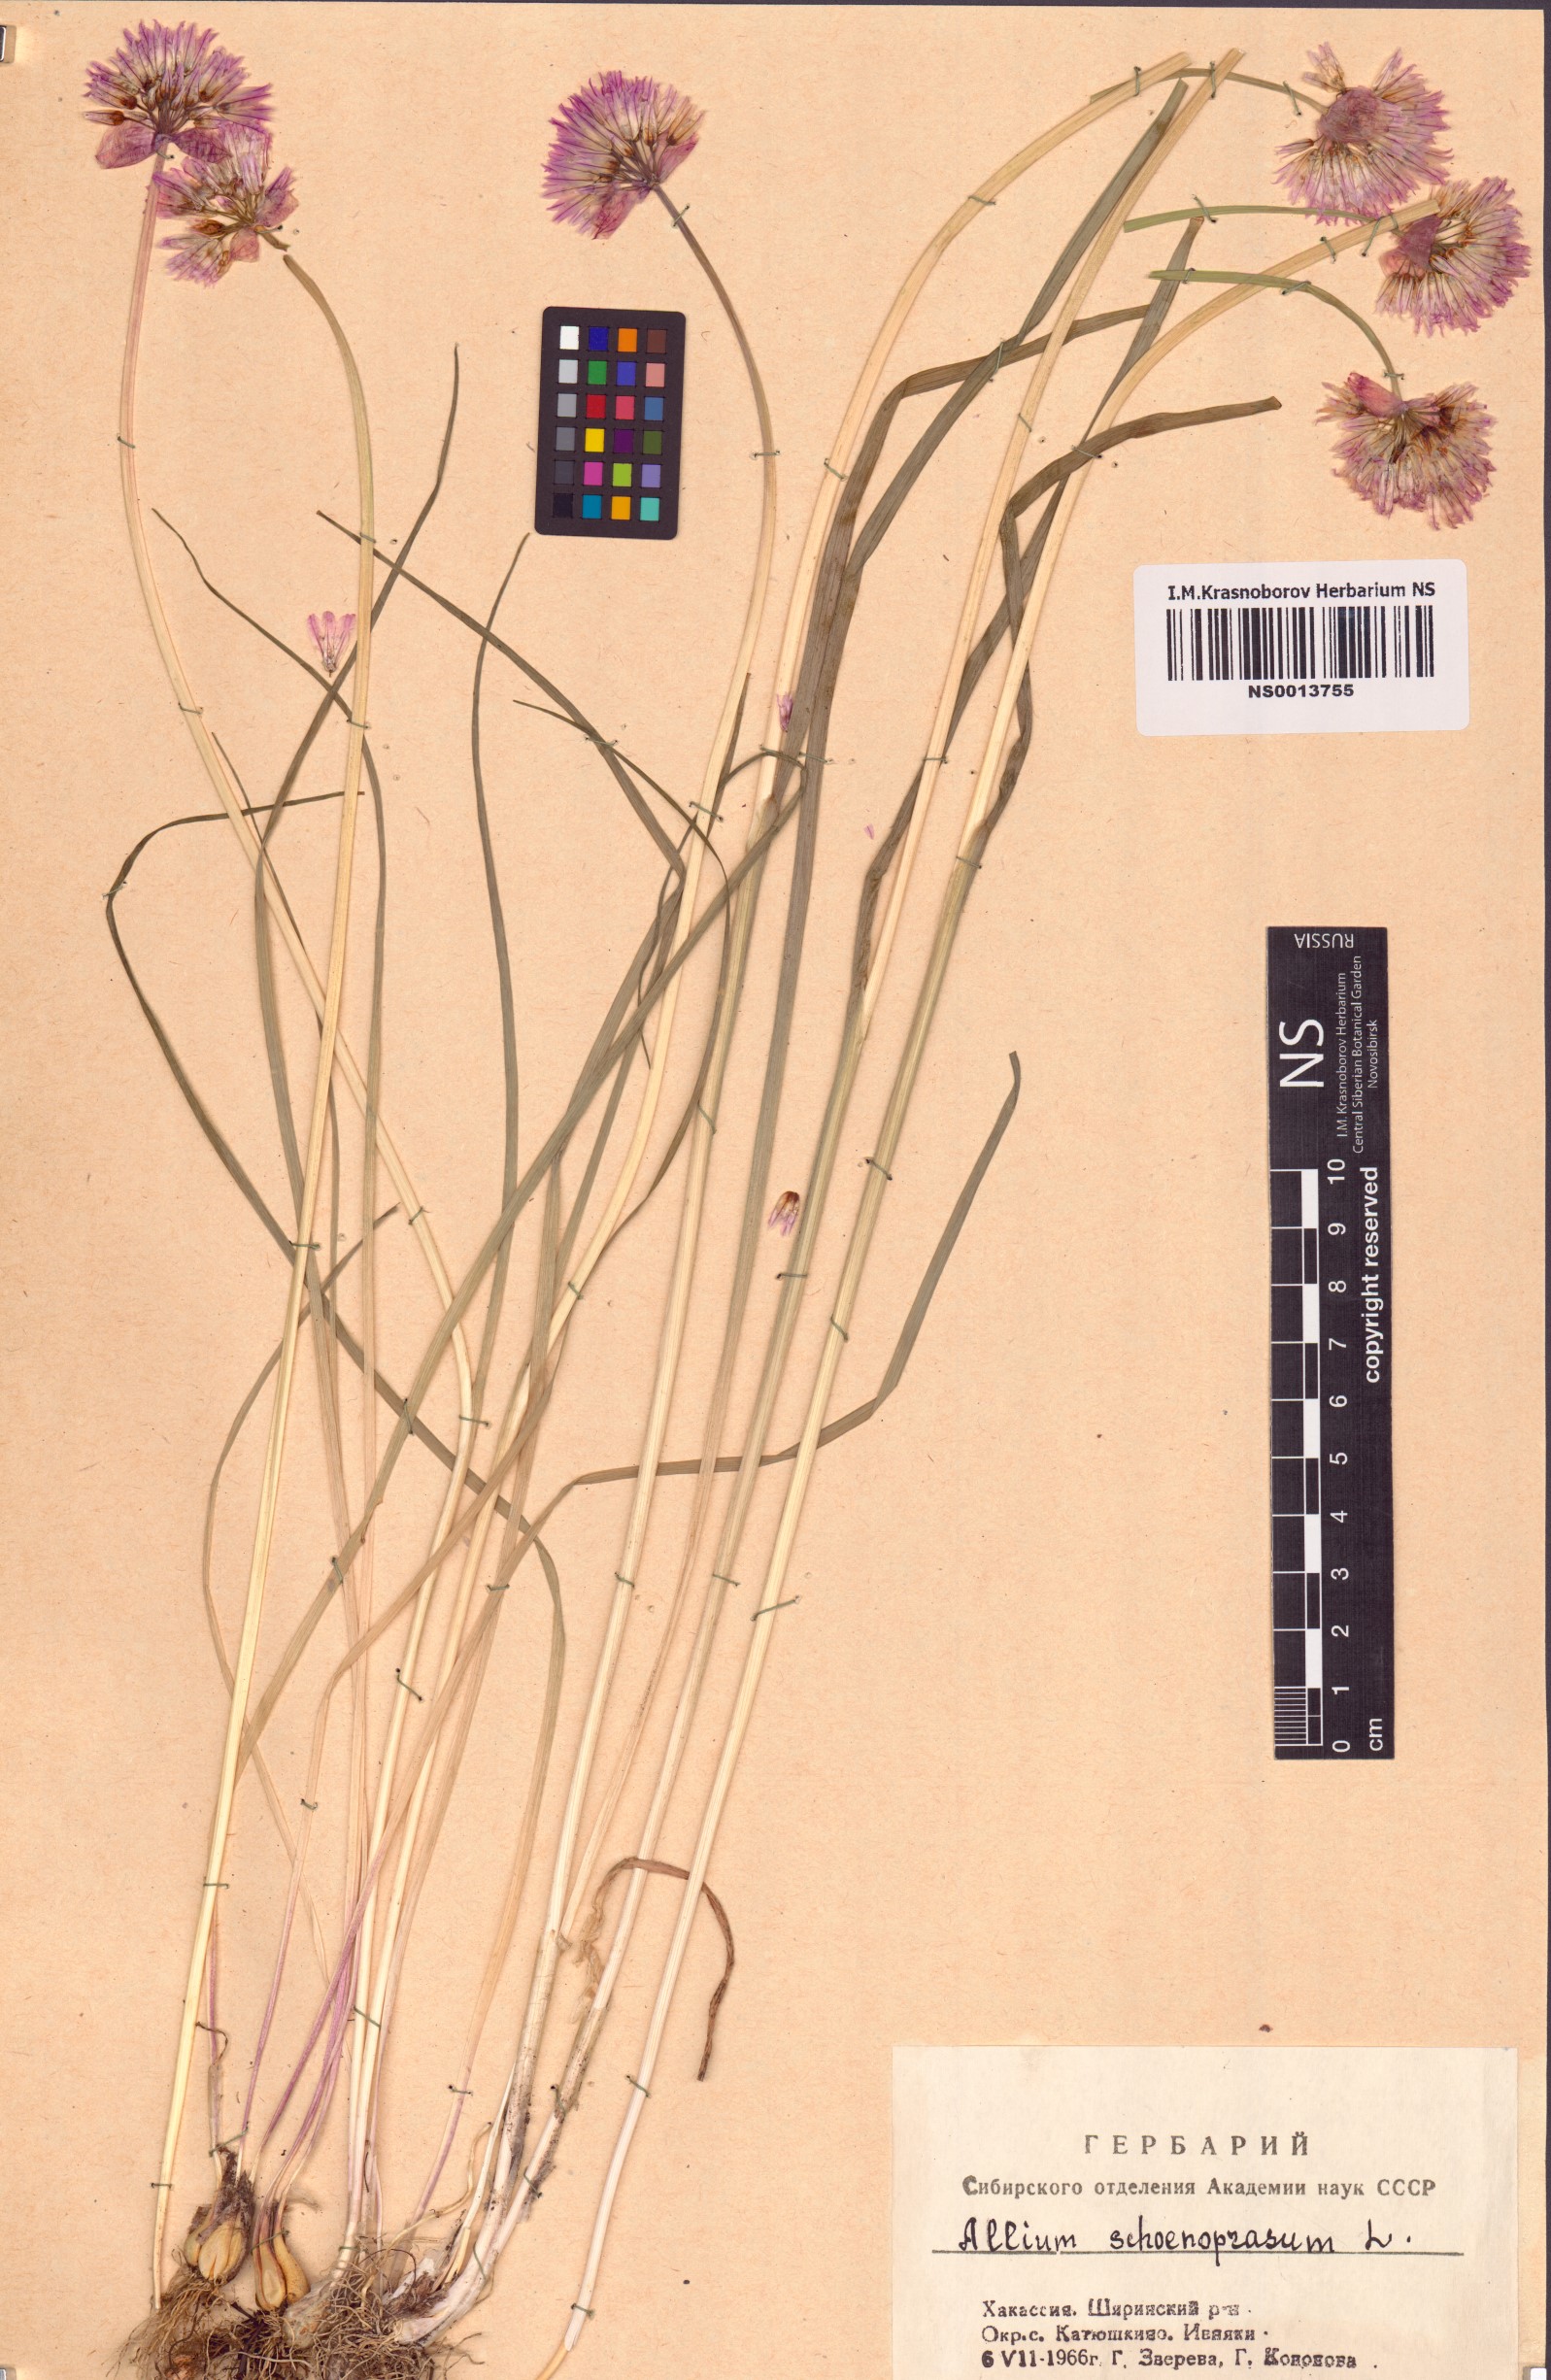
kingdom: Plantae
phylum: Tracheophyta
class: Liliopsida
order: Asparagales
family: Amaryllidaceae
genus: Allium
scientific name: Allium schoenoprasum
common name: Chives
